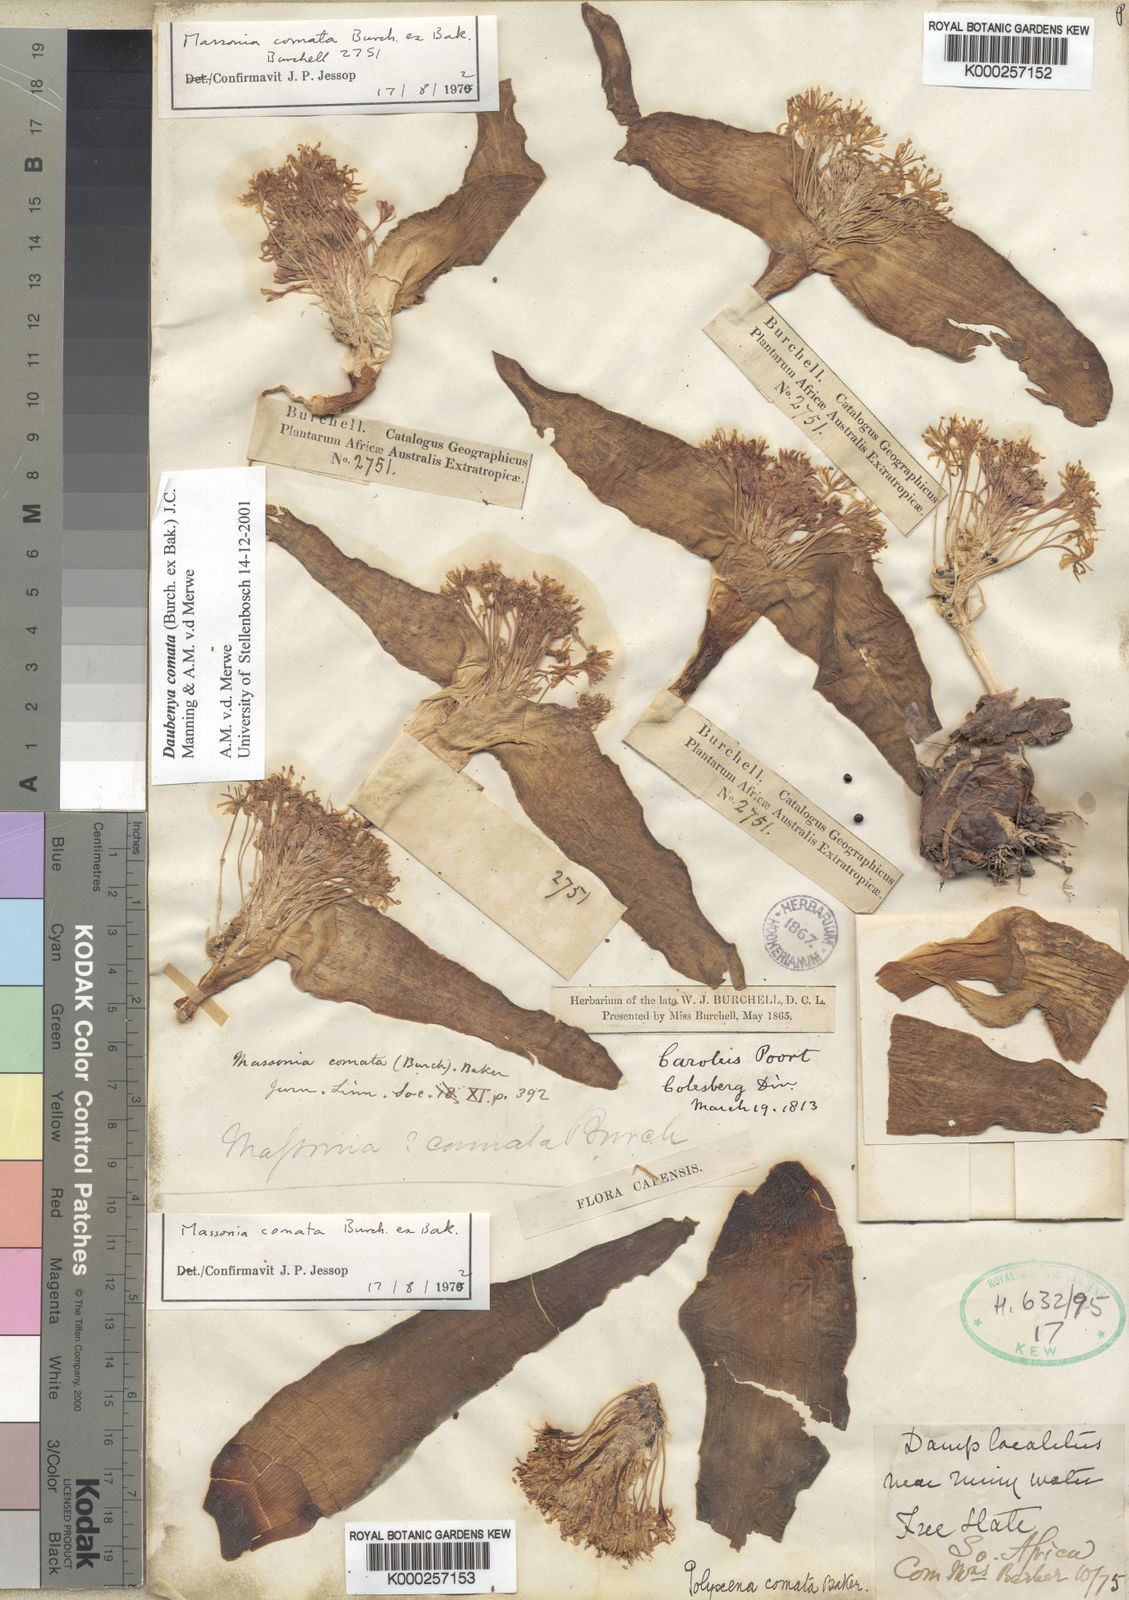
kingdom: Plantae
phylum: Tracheophyta
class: Liliopsida
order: Asparagales
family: Asparagaceae
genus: Daubenya
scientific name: Daubenya comata
